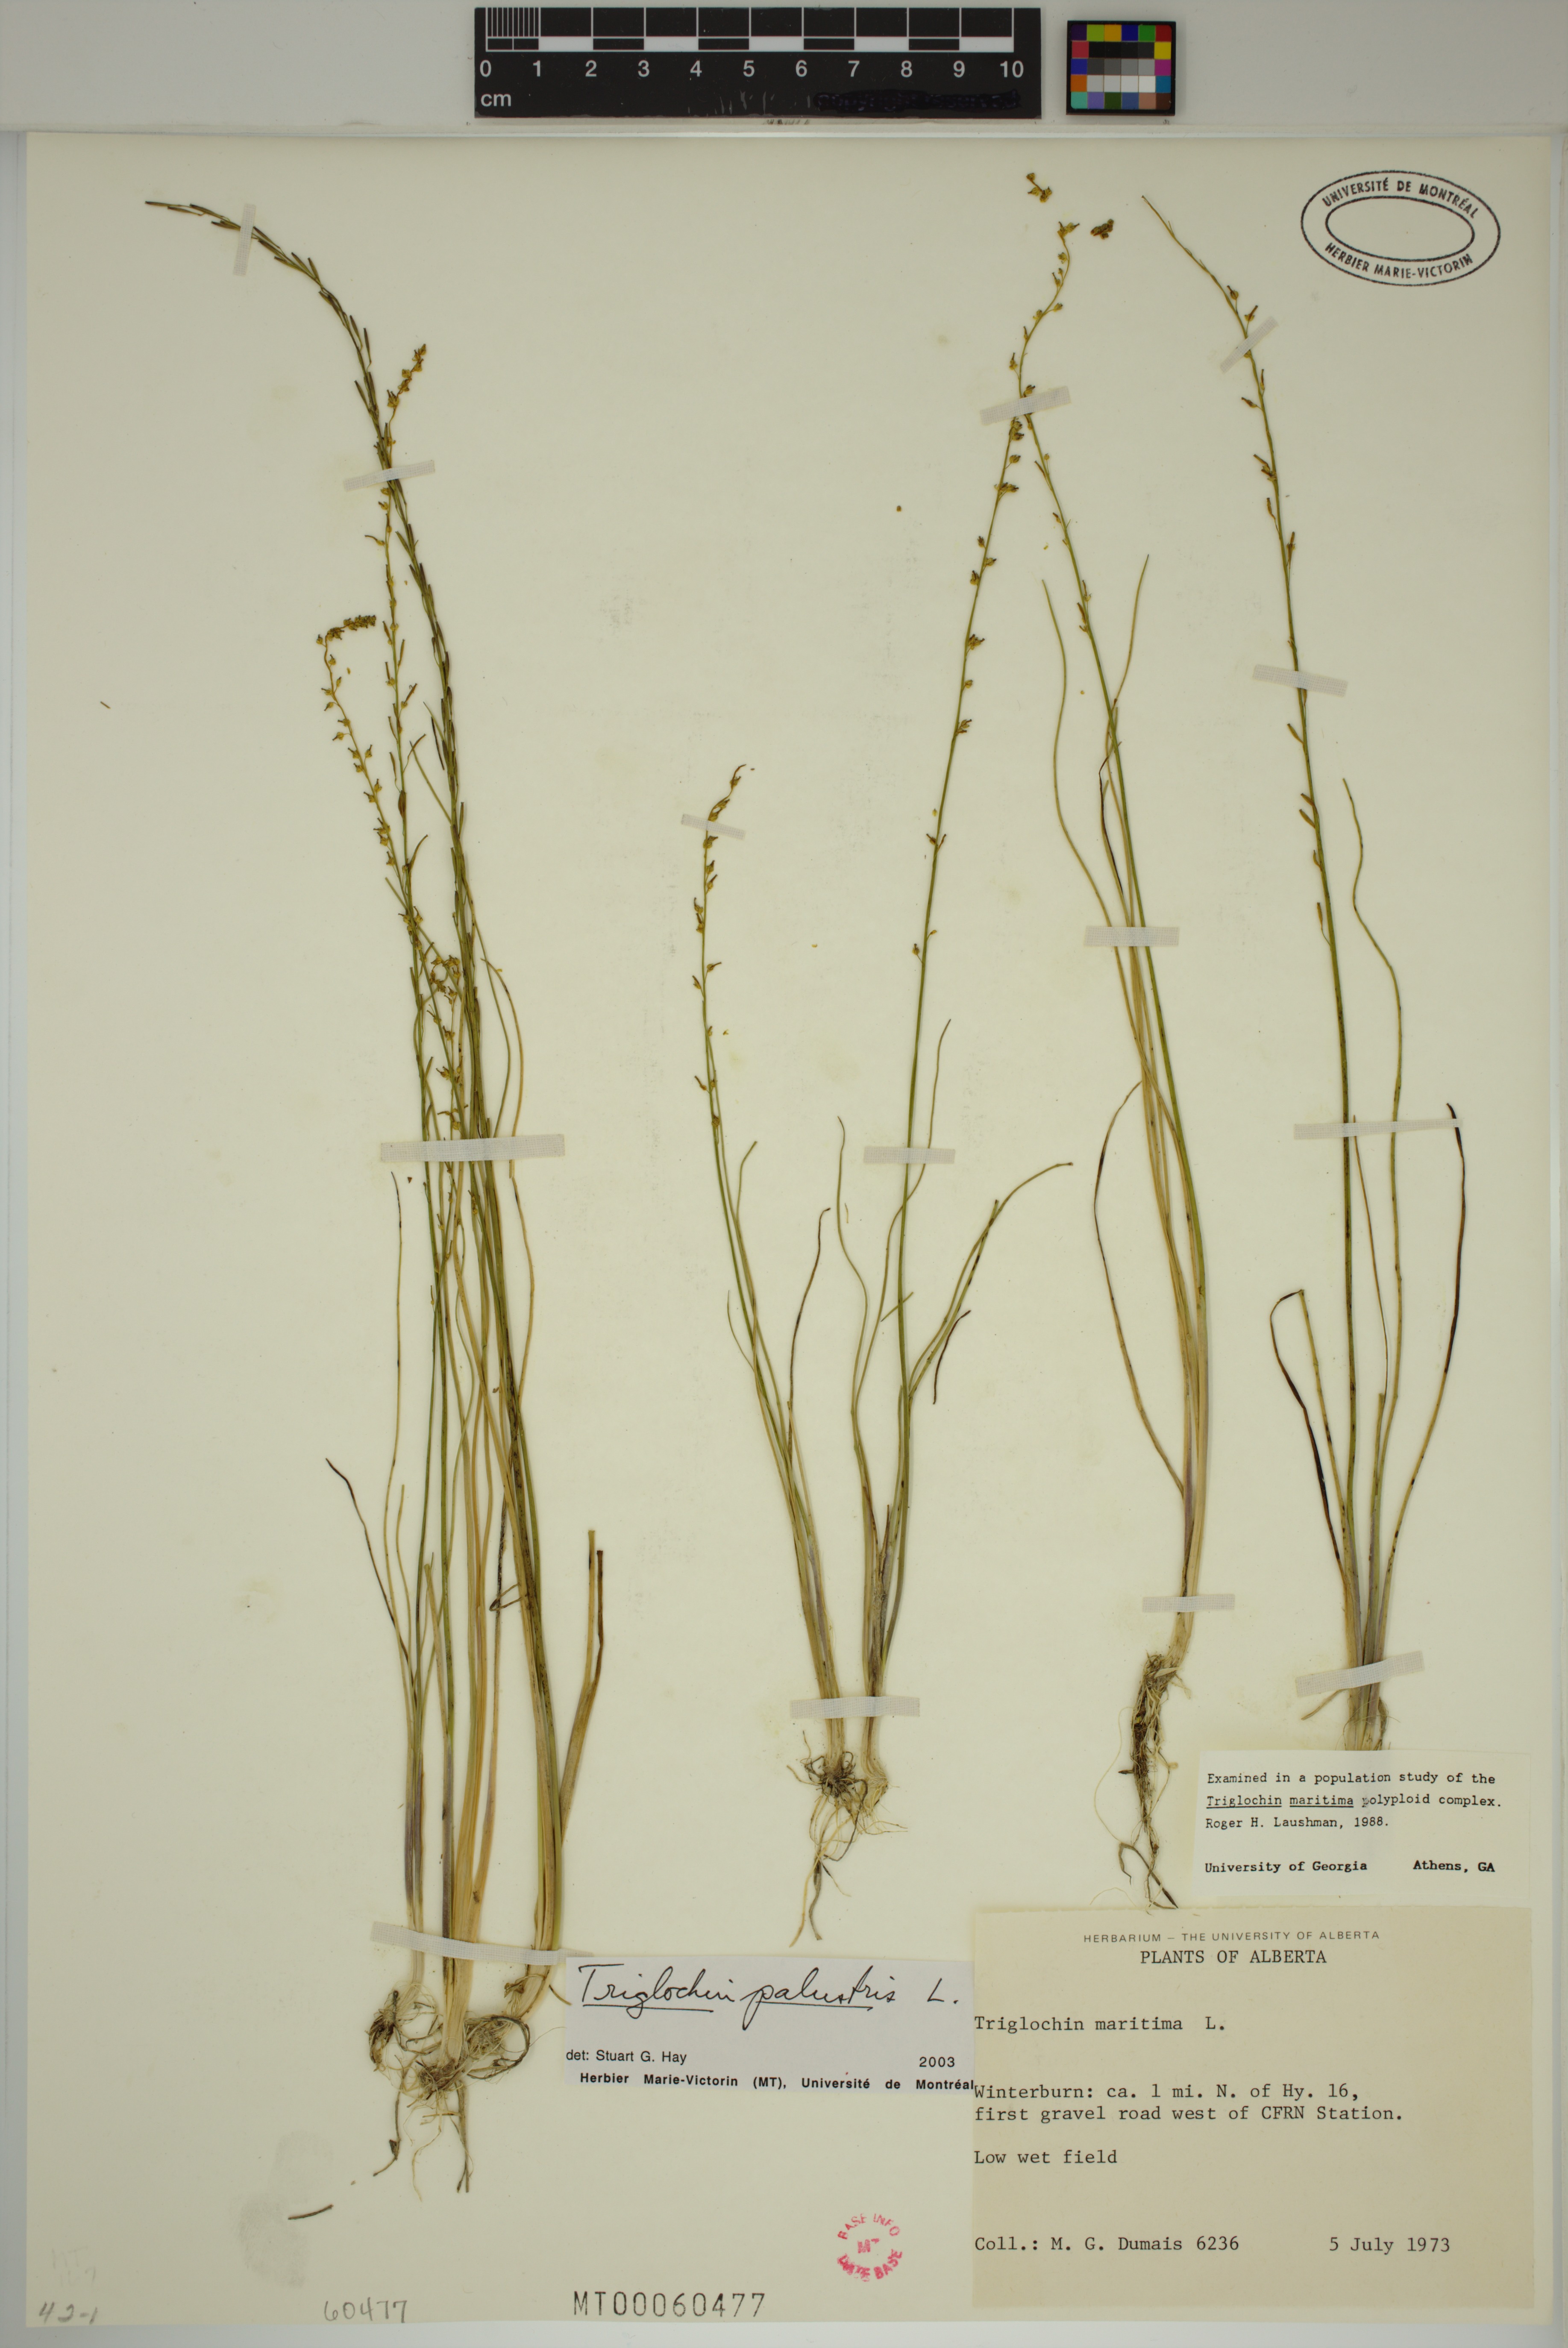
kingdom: Plantae
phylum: Tracheophyta
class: Liliopsida
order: Alismatales
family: Juncaginaceae
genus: Triglochin
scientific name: Triglochin palustris
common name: Marsh arrowgrass
